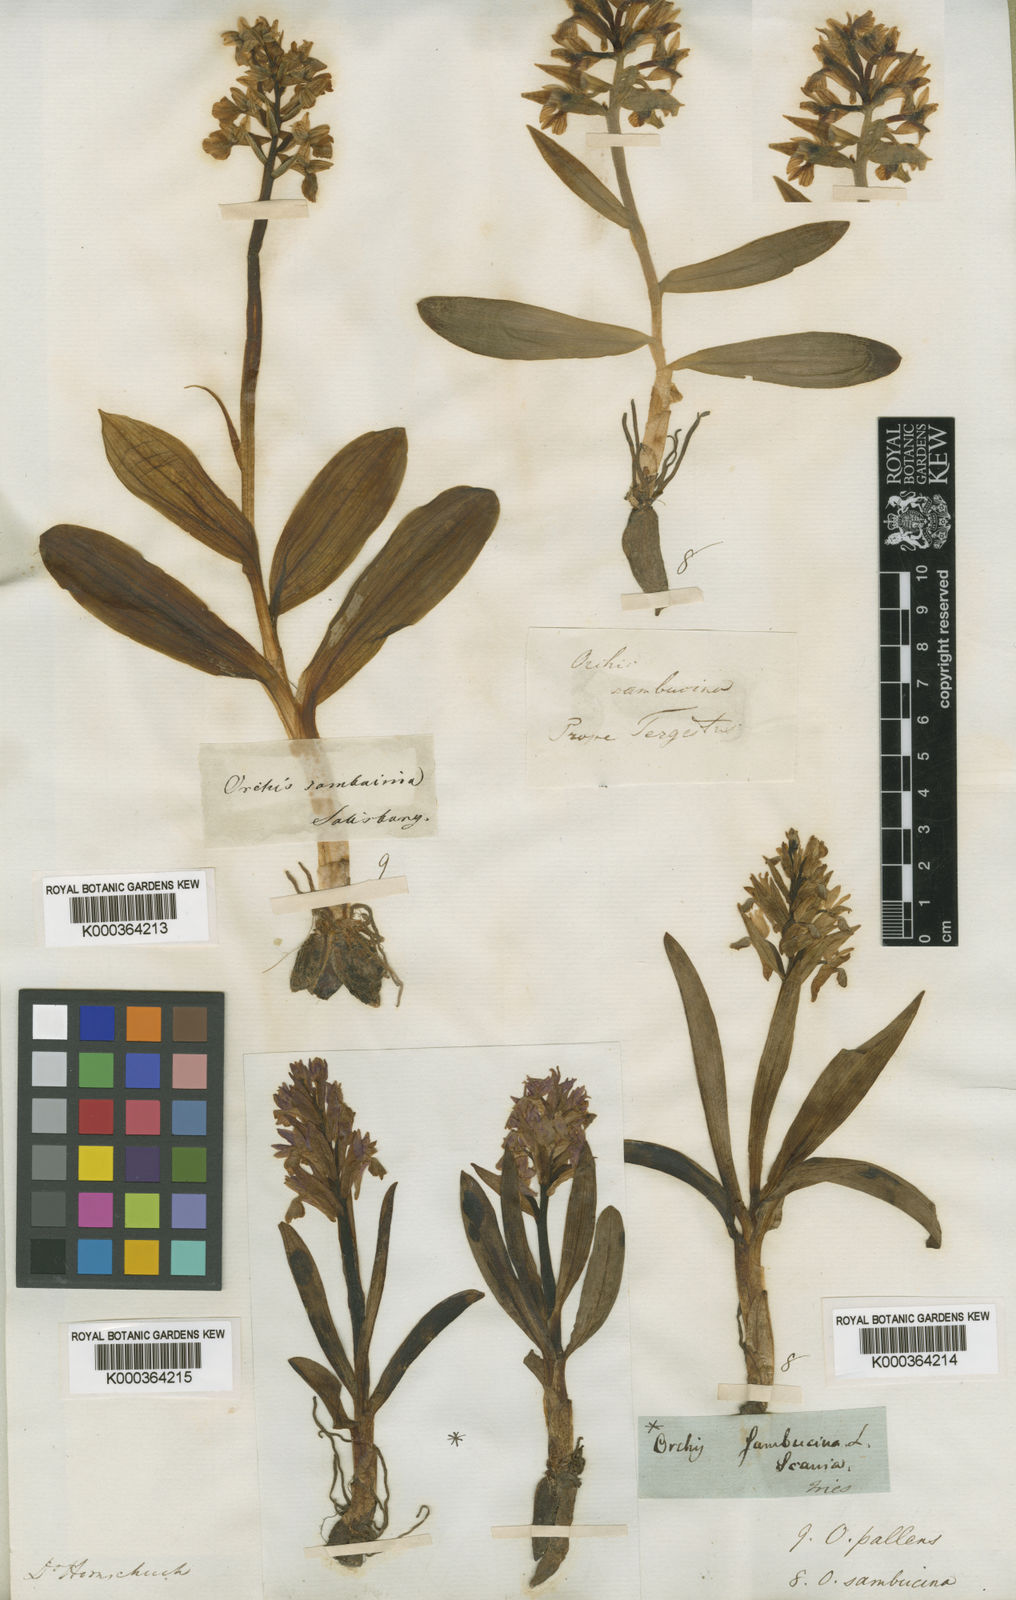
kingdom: Plantae
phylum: Tracheophyta
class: Liliopsida
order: Asparagales
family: Orchidaceae
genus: Dactylorhiza
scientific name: Dactylorhiza
